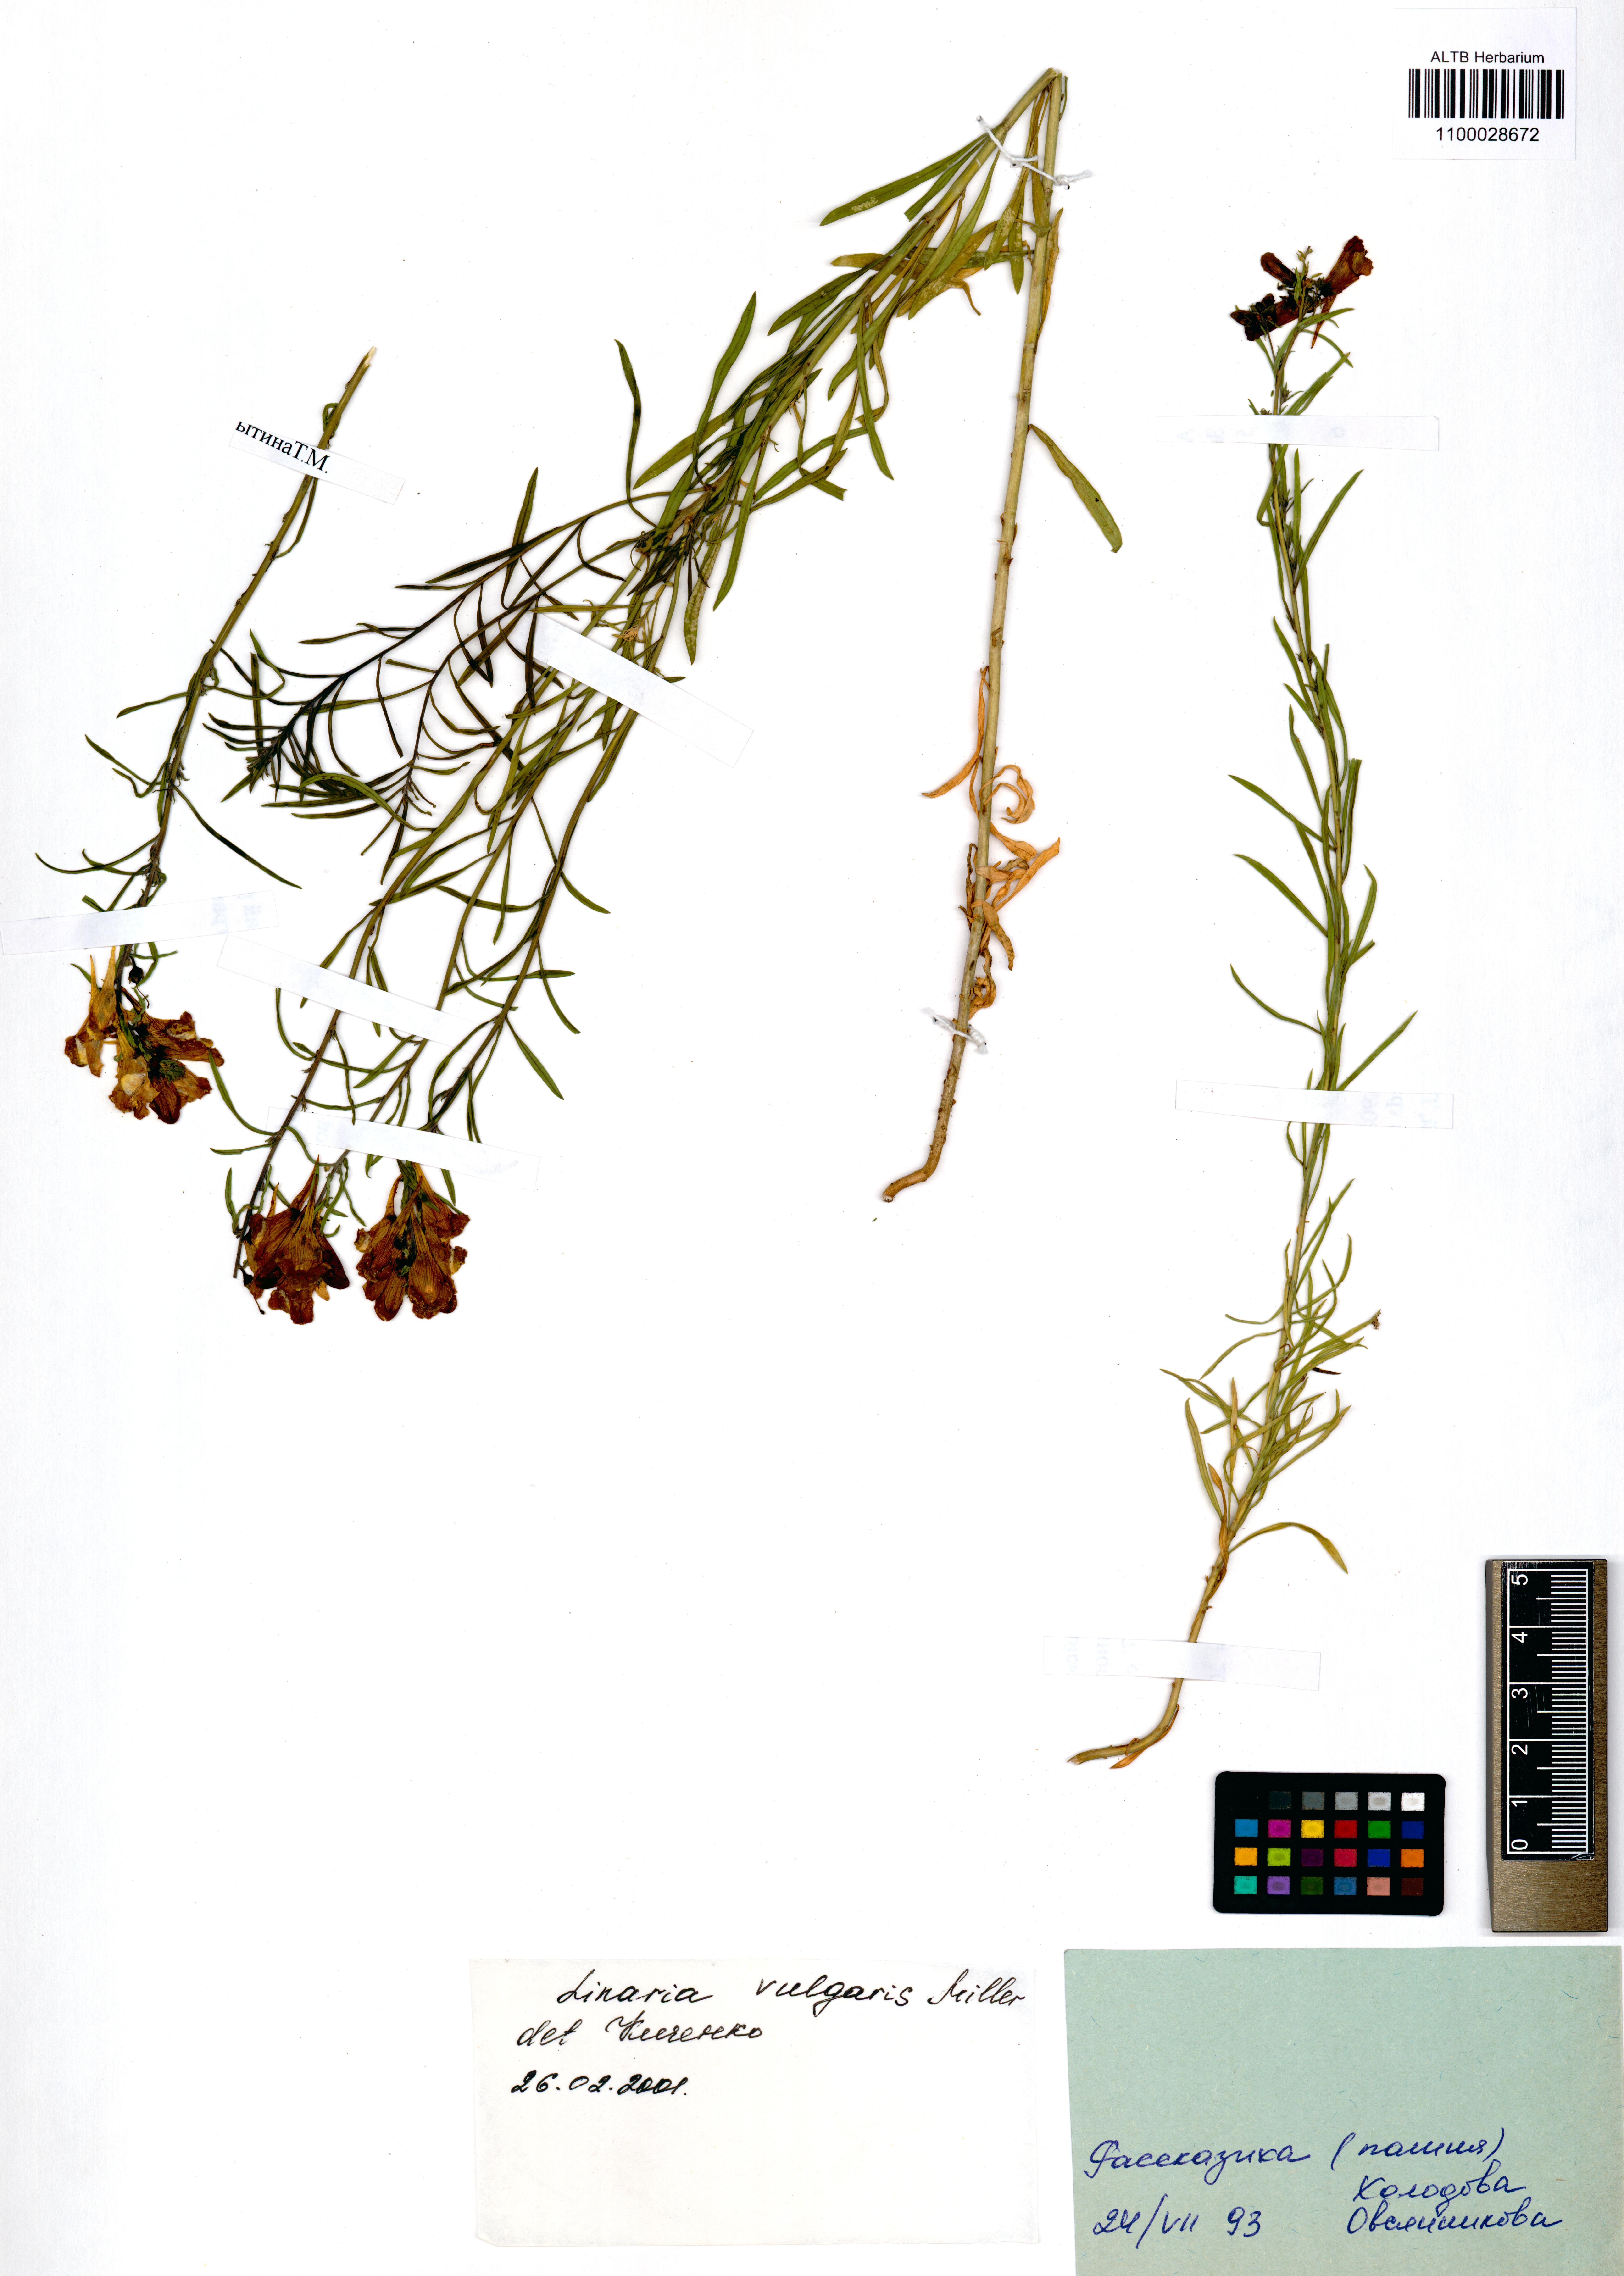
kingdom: Plantae
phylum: Tracheophyta
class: Magnoliopsida
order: Lamiales
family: Plantaginaceae
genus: Linaria
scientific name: Linaria vulgaris
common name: Butter and eggs
